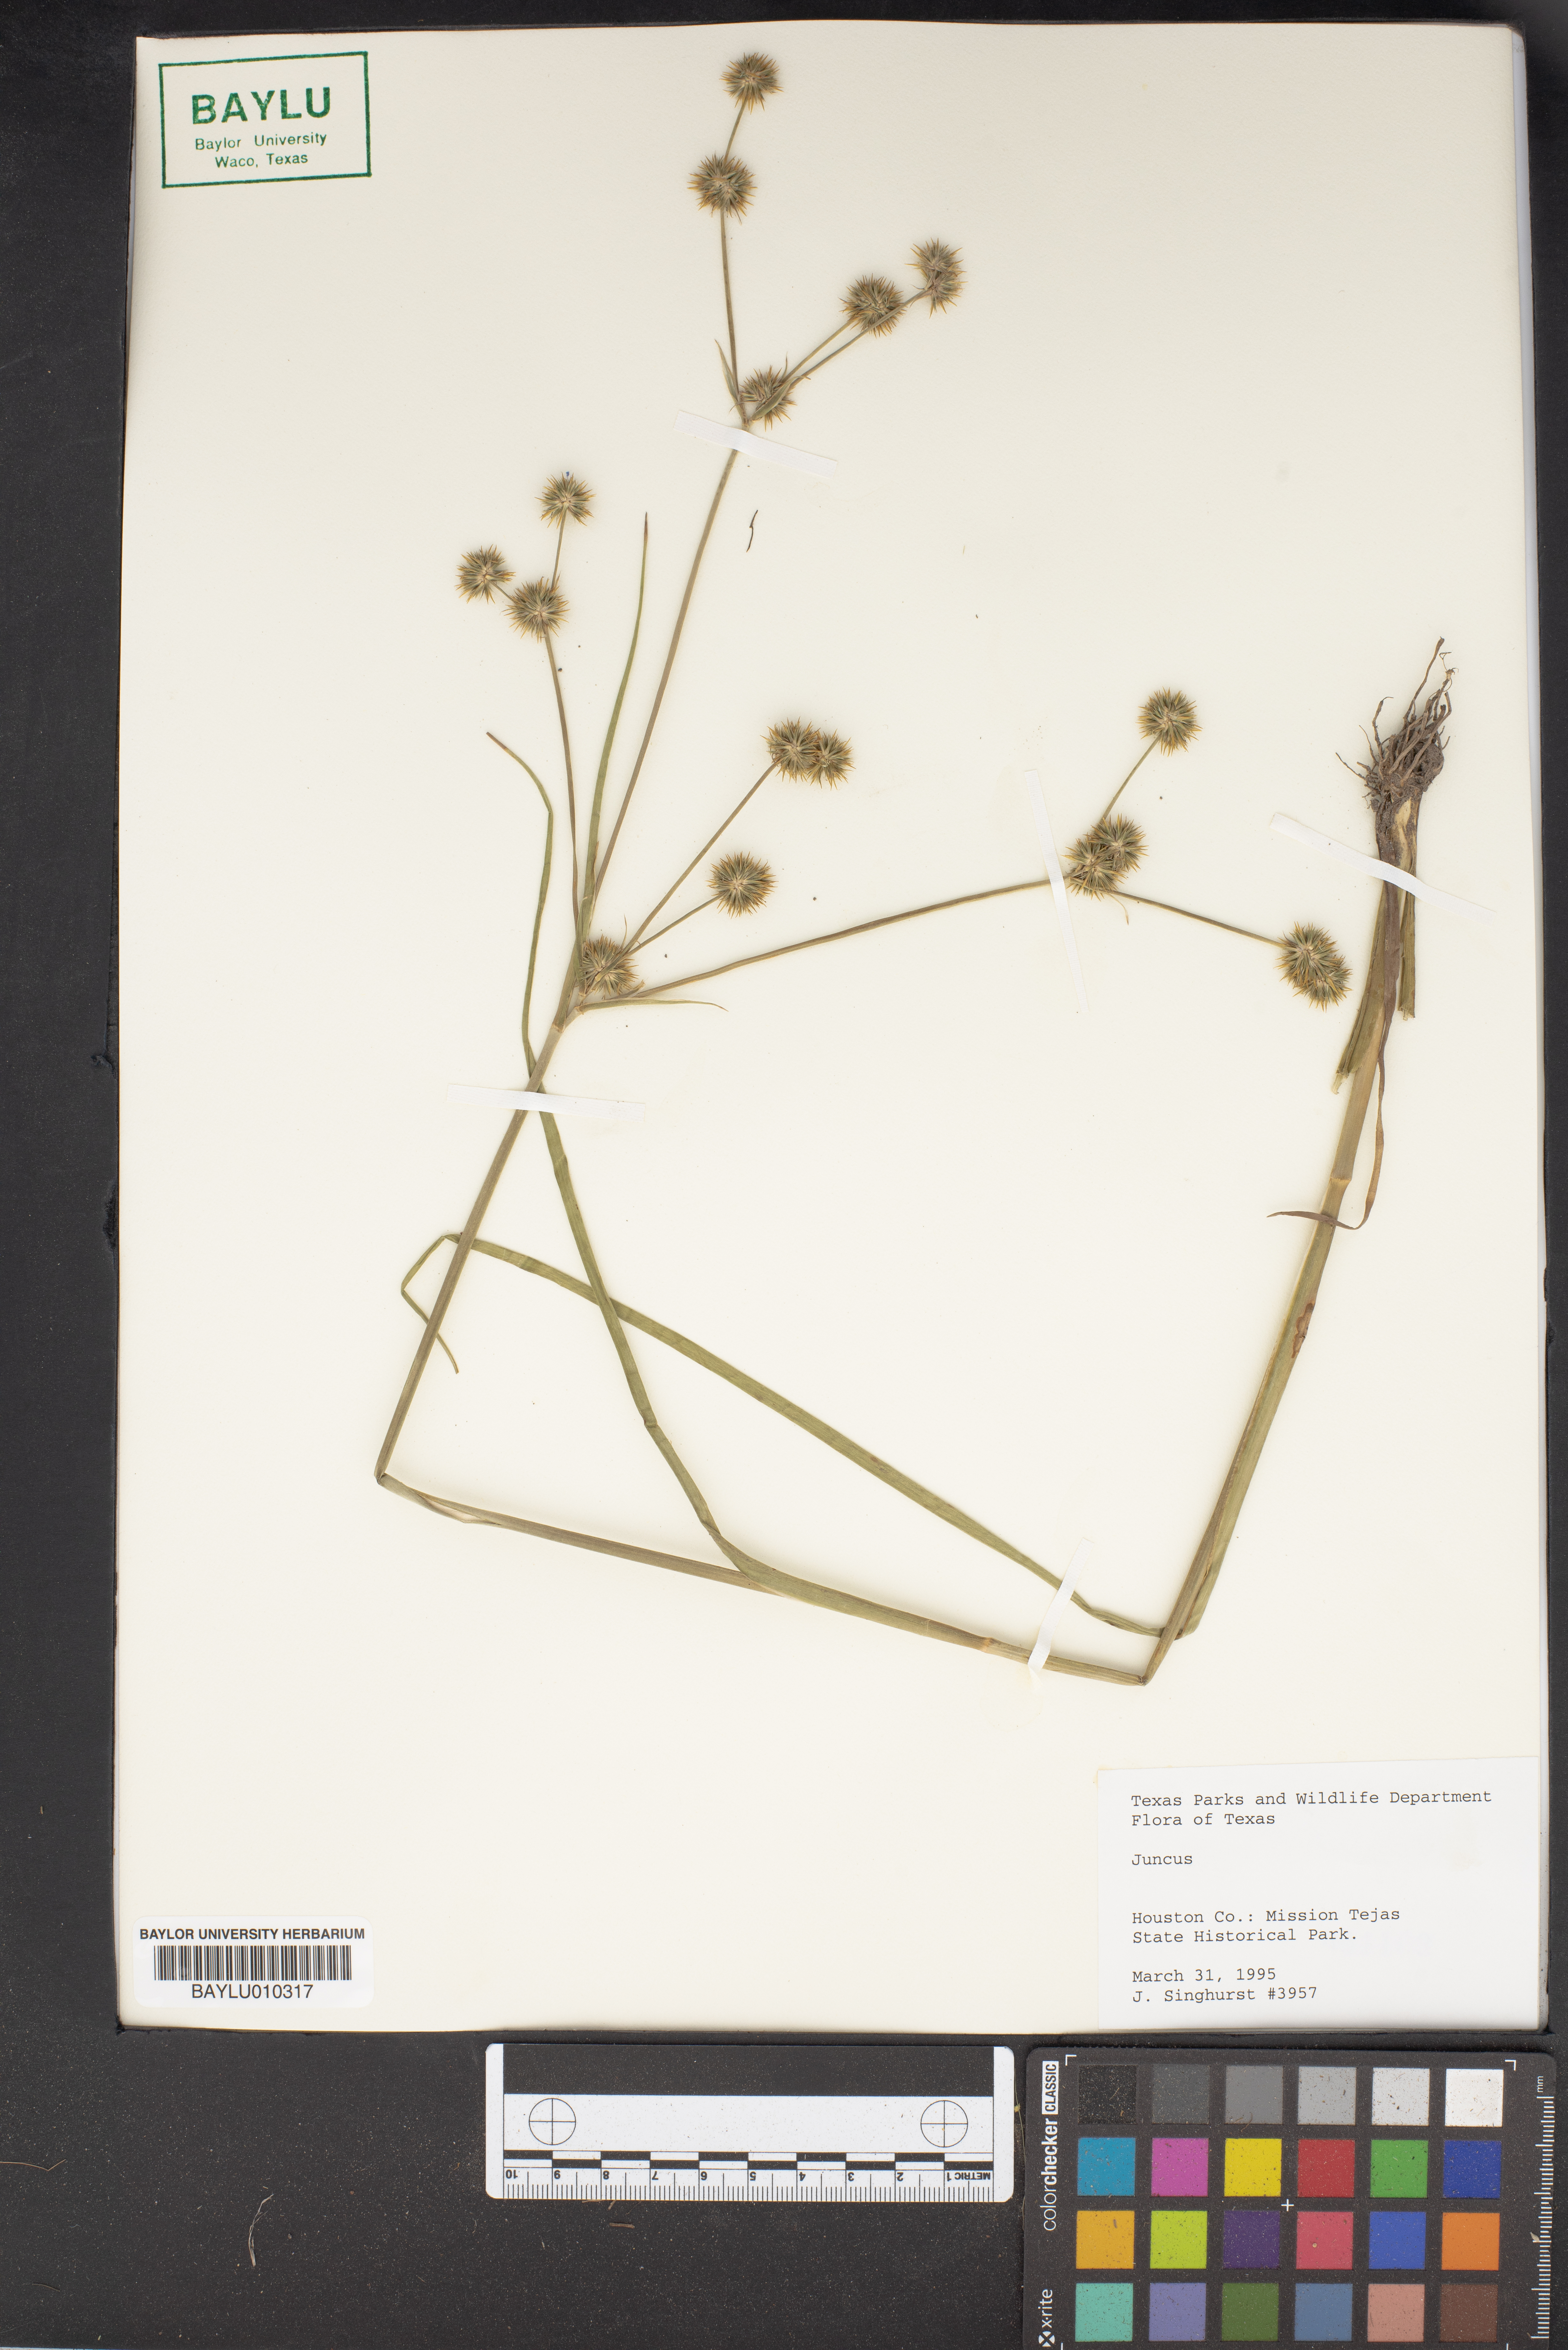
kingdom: Plantae
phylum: Tracheophyta
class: Liliopsida
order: Poales
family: Juncaceae
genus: Juncus
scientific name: Juncus
